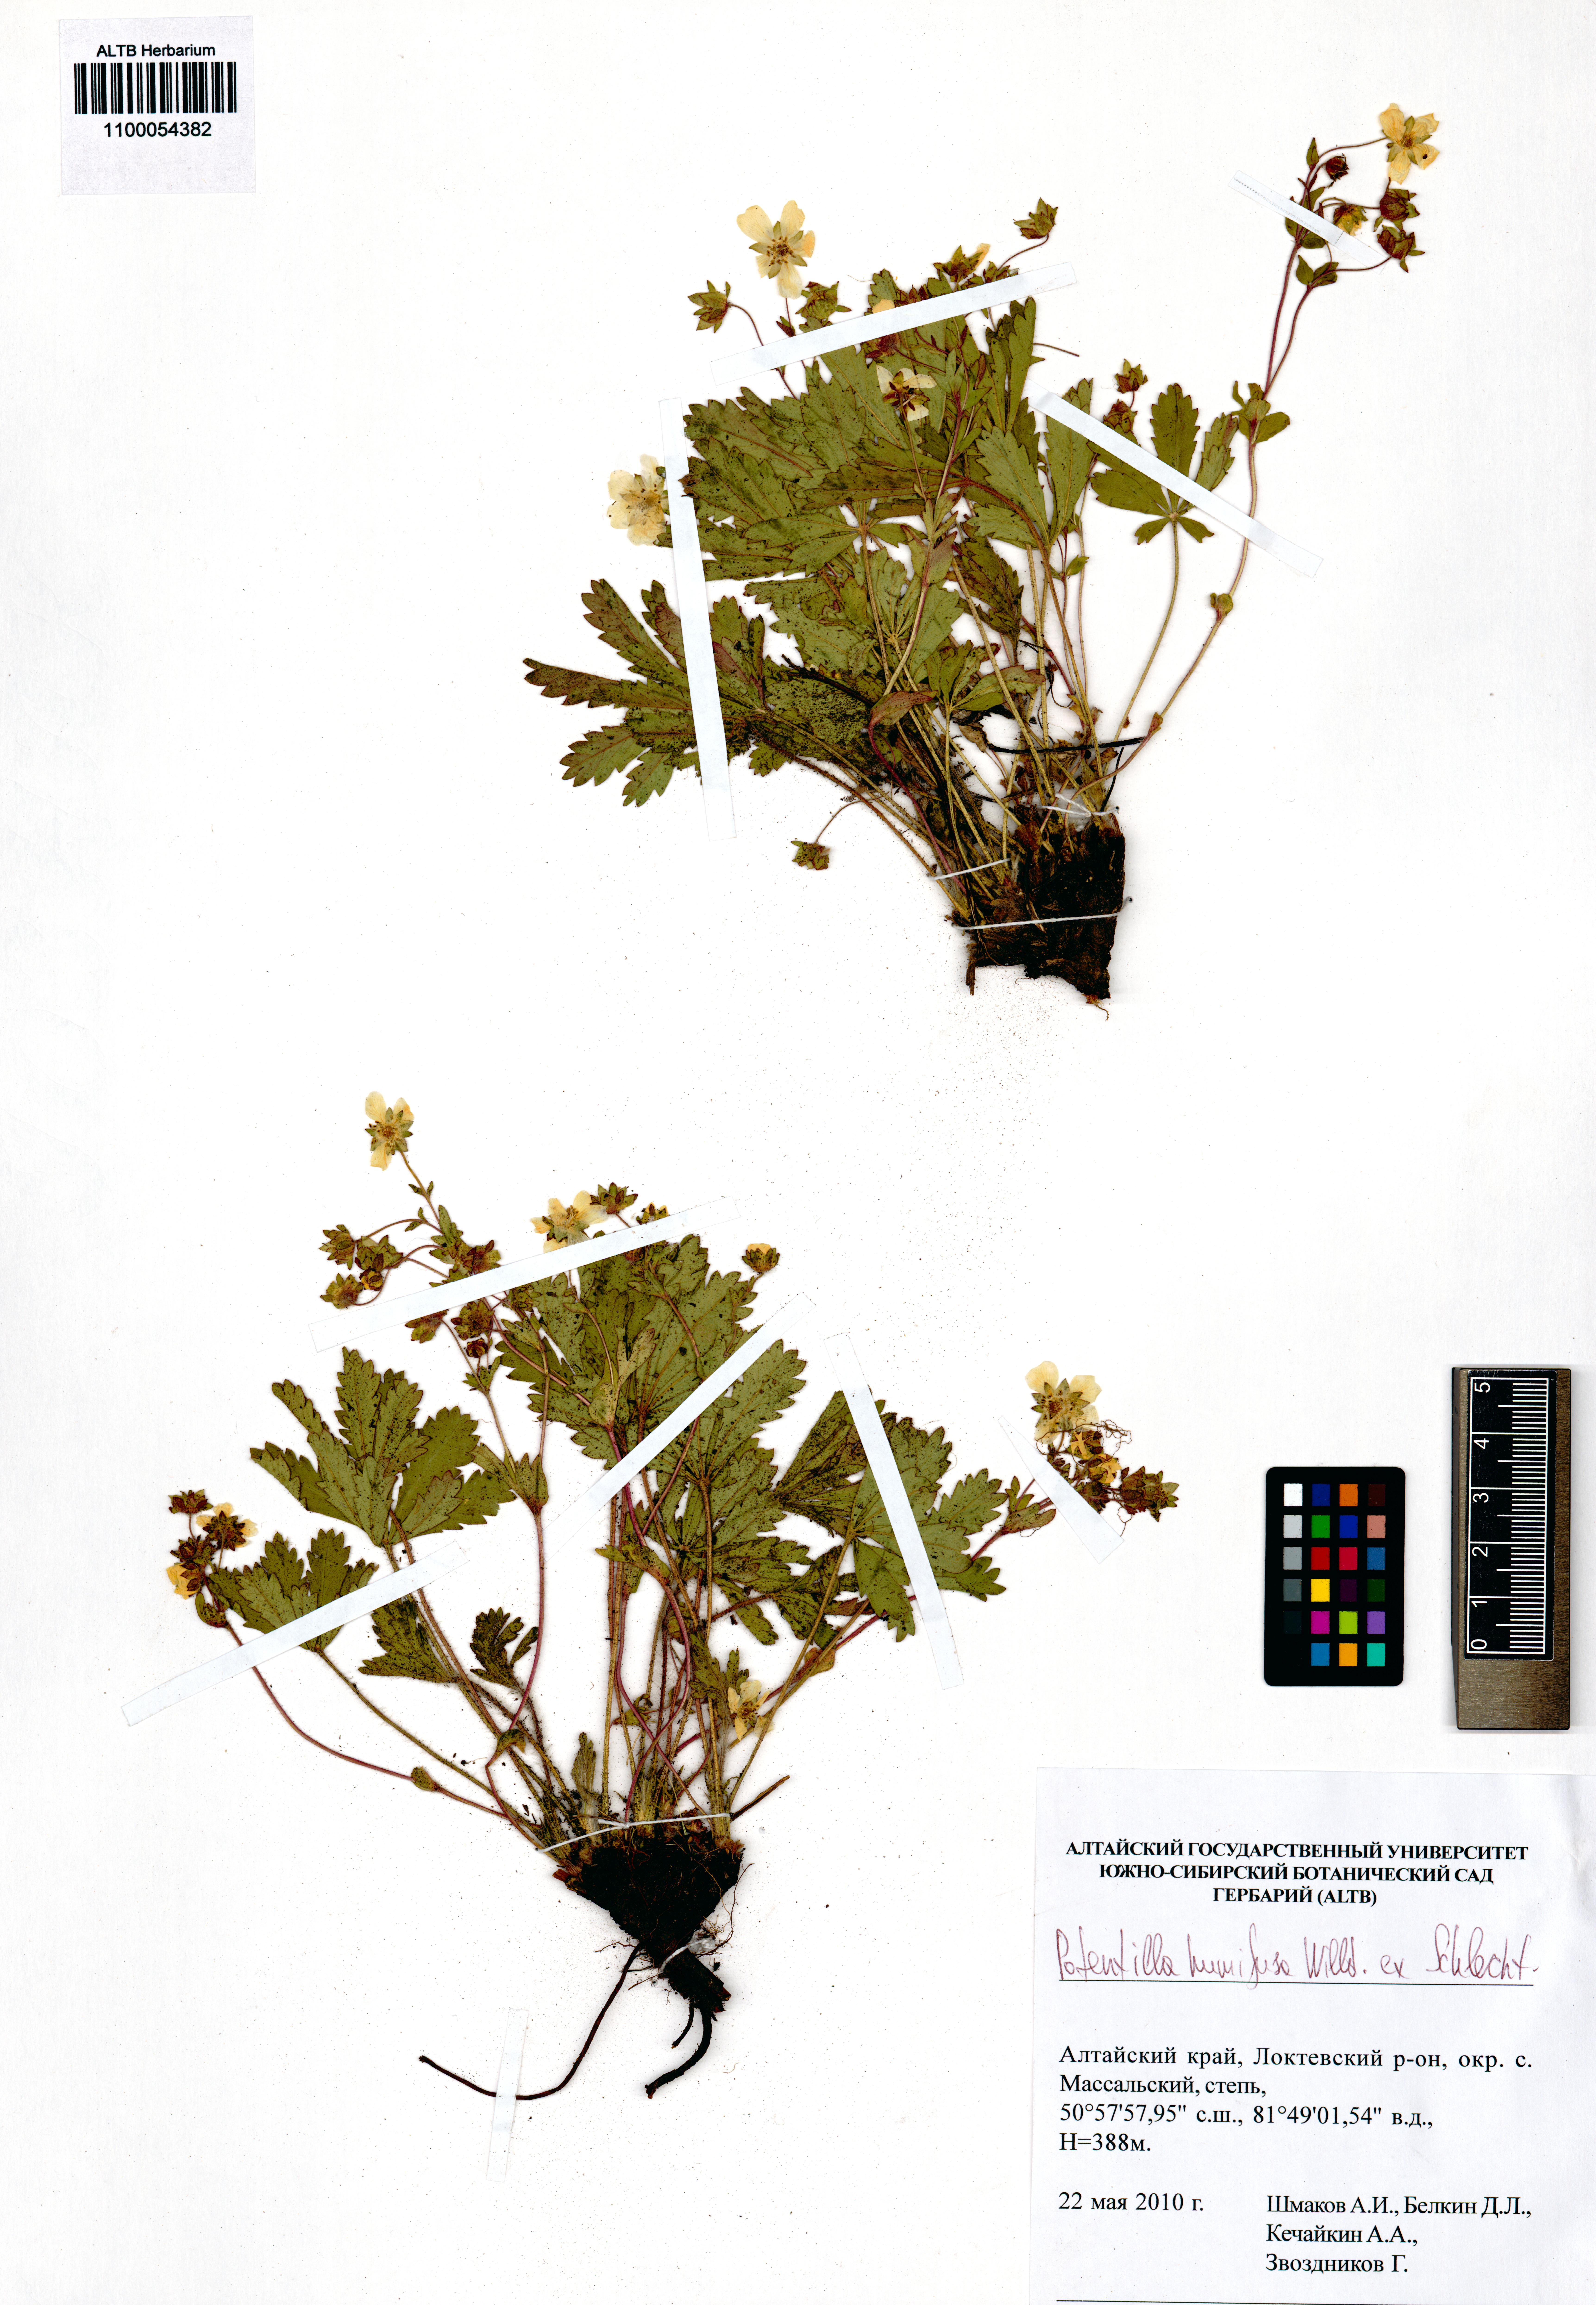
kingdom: Plantae
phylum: Tracheophyta
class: Magnoliopsida
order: Rosales
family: Rosaceae
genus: Potentilla
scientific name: Potentilla humifusa
